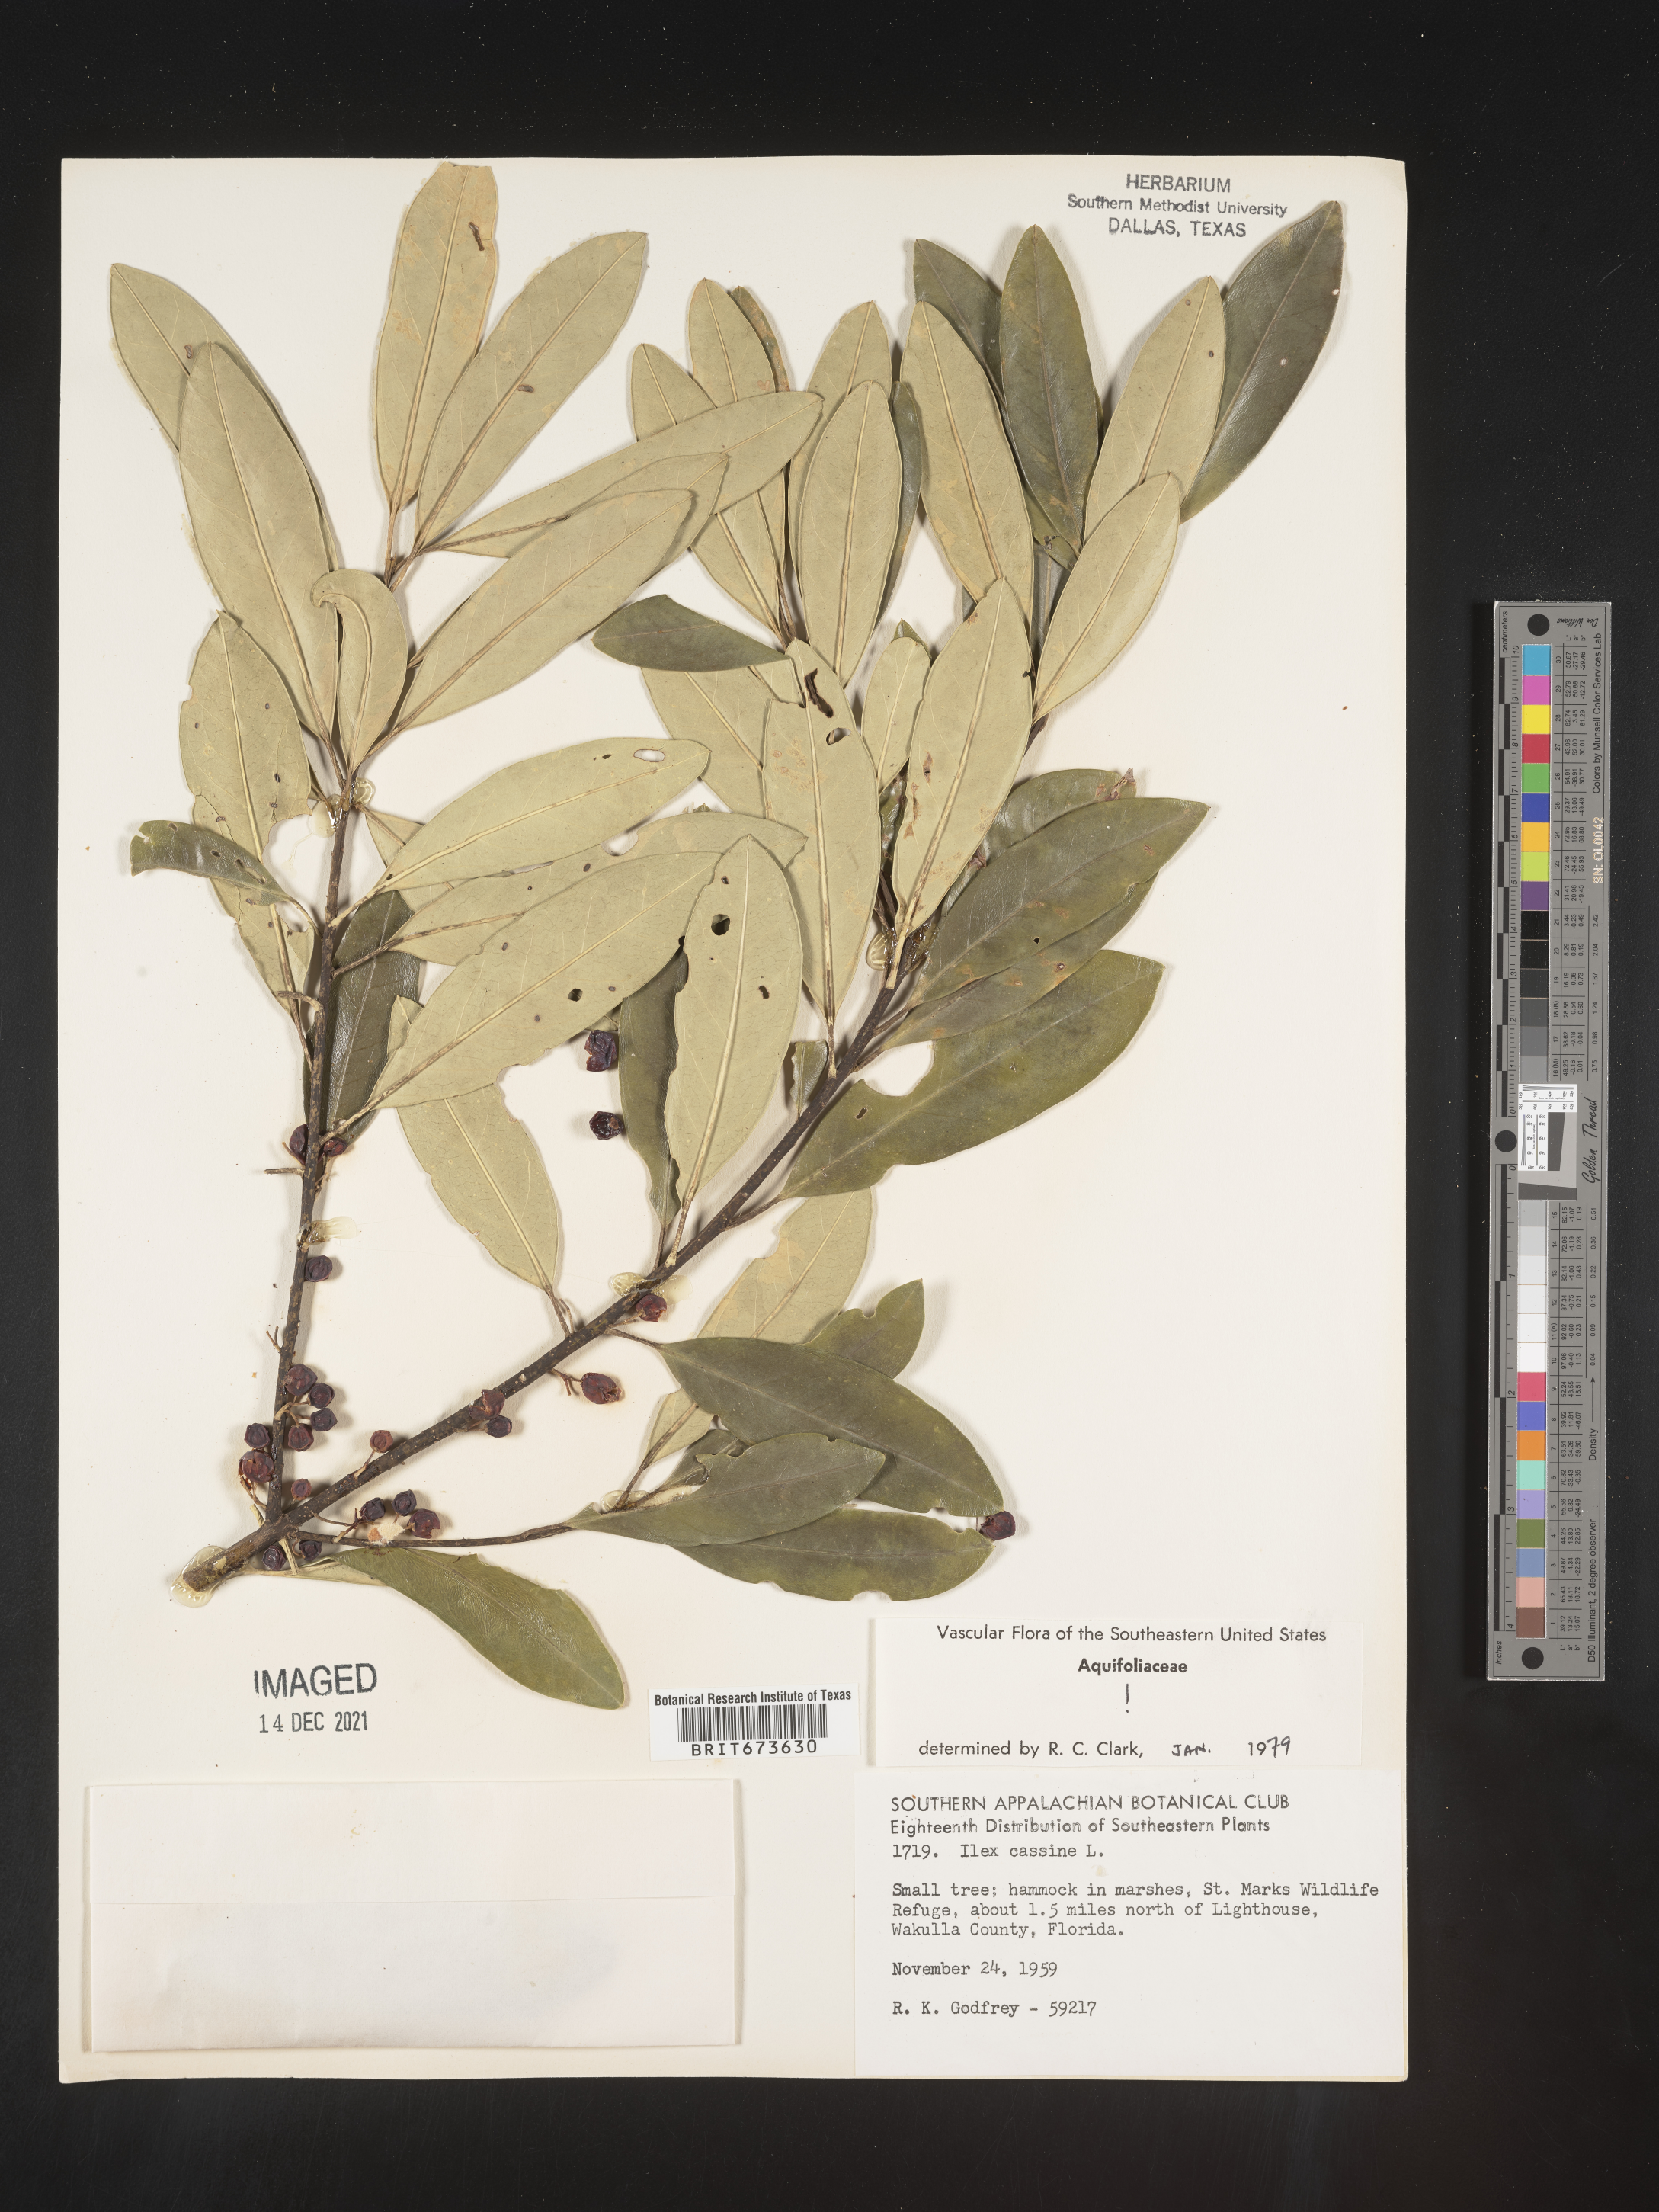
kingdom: Plantae
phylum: Tracheophyta
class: Magnoliopsida
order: Aquifoliales
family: Aquifoliaceae
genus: Ilex
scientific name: Ilex cassine
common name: Dahoon
